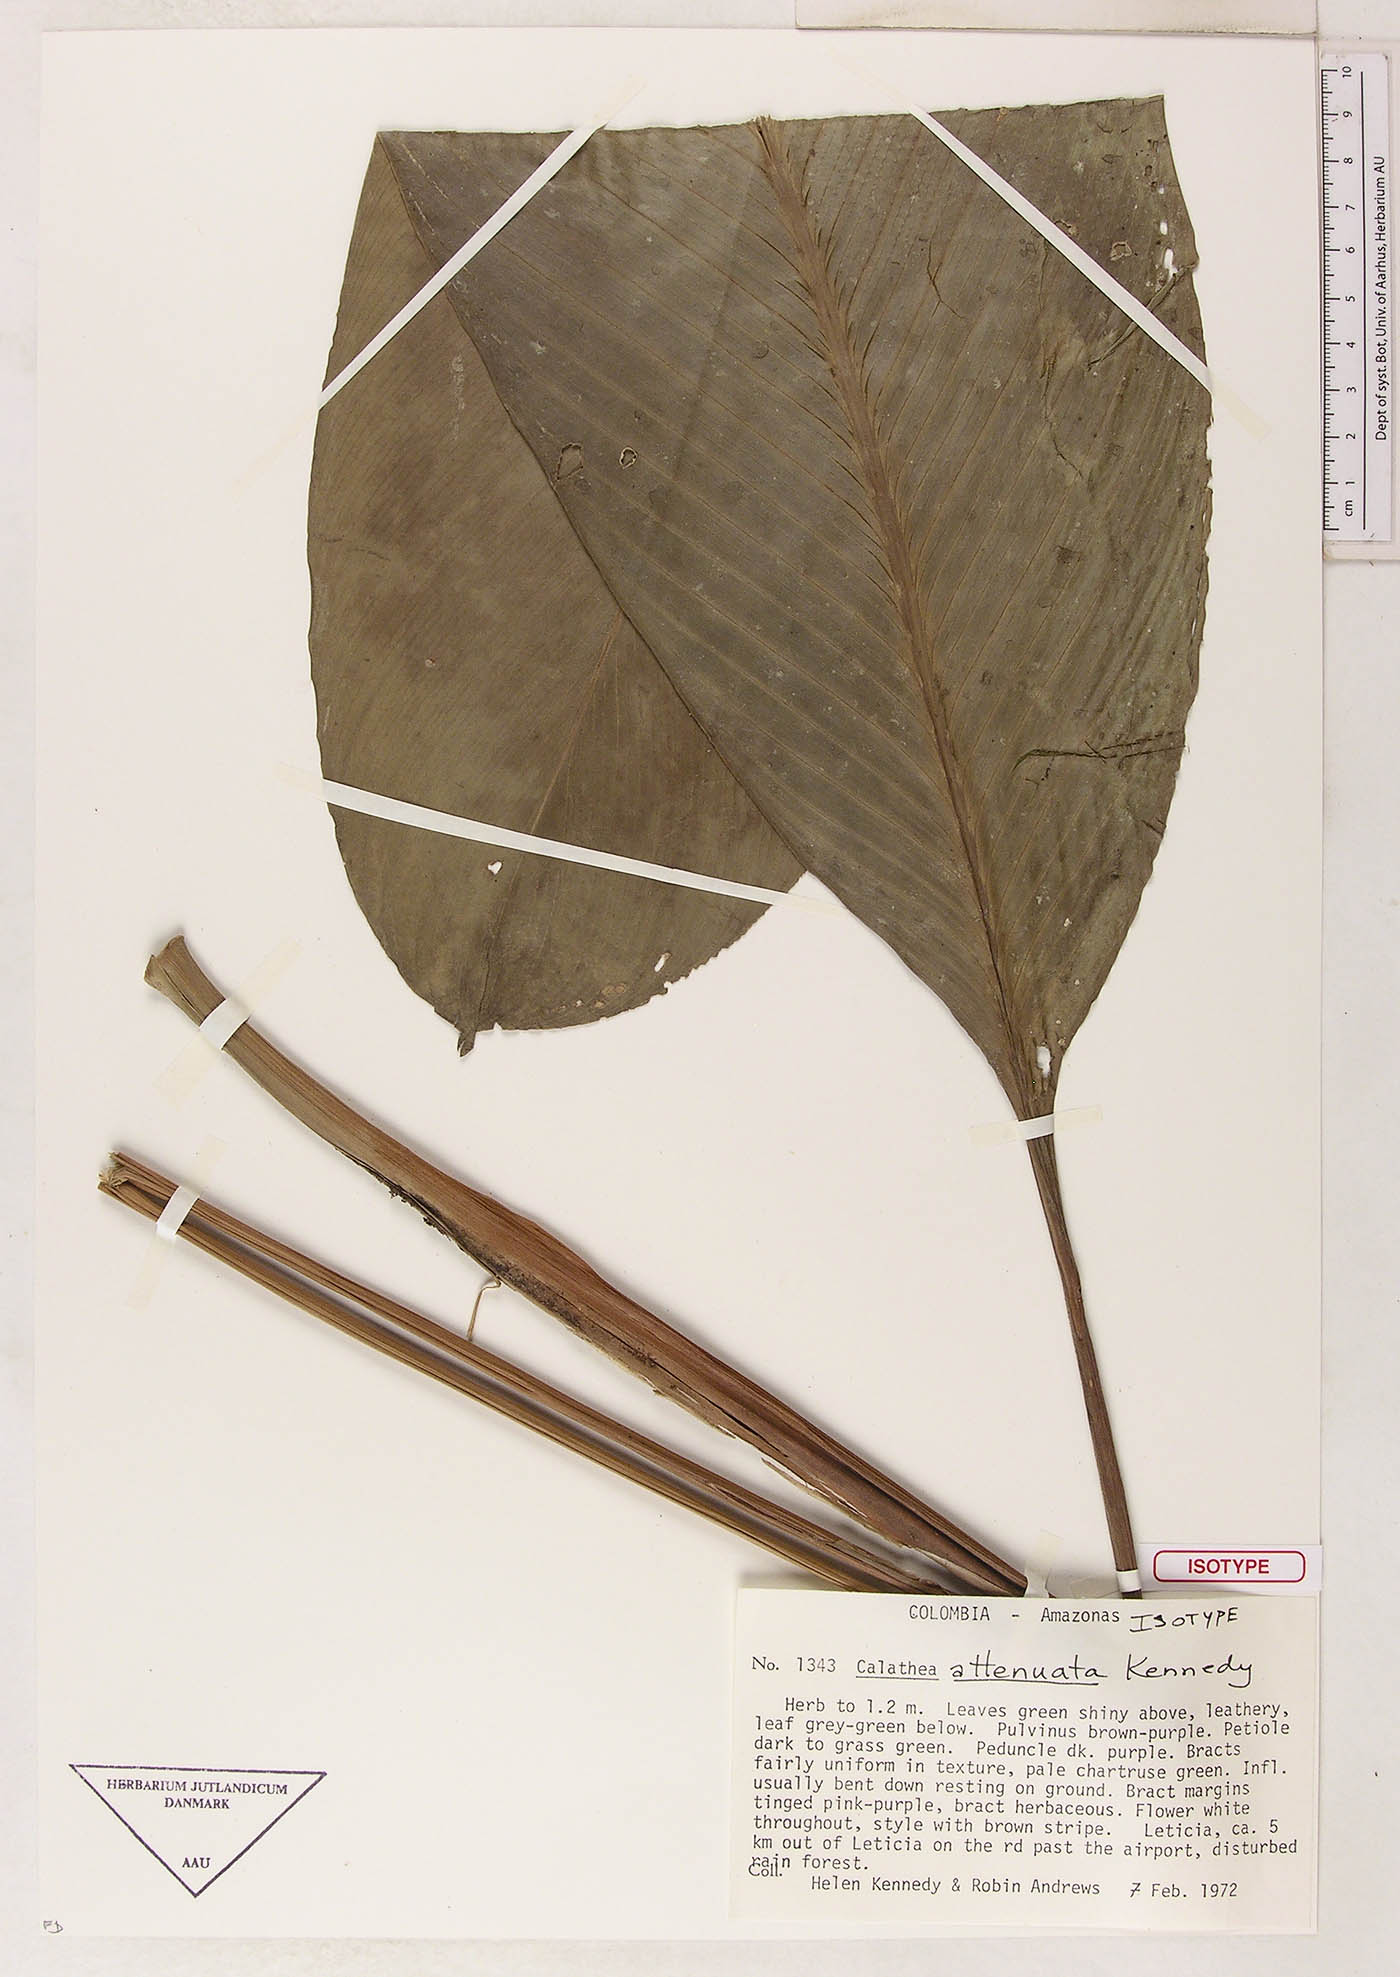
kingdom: Plantae
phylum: Tracheophyta
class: Liliopsida
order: Zingiberales
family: Marantaceae
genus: Goeppertia
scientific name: Goeppertia attenuata
